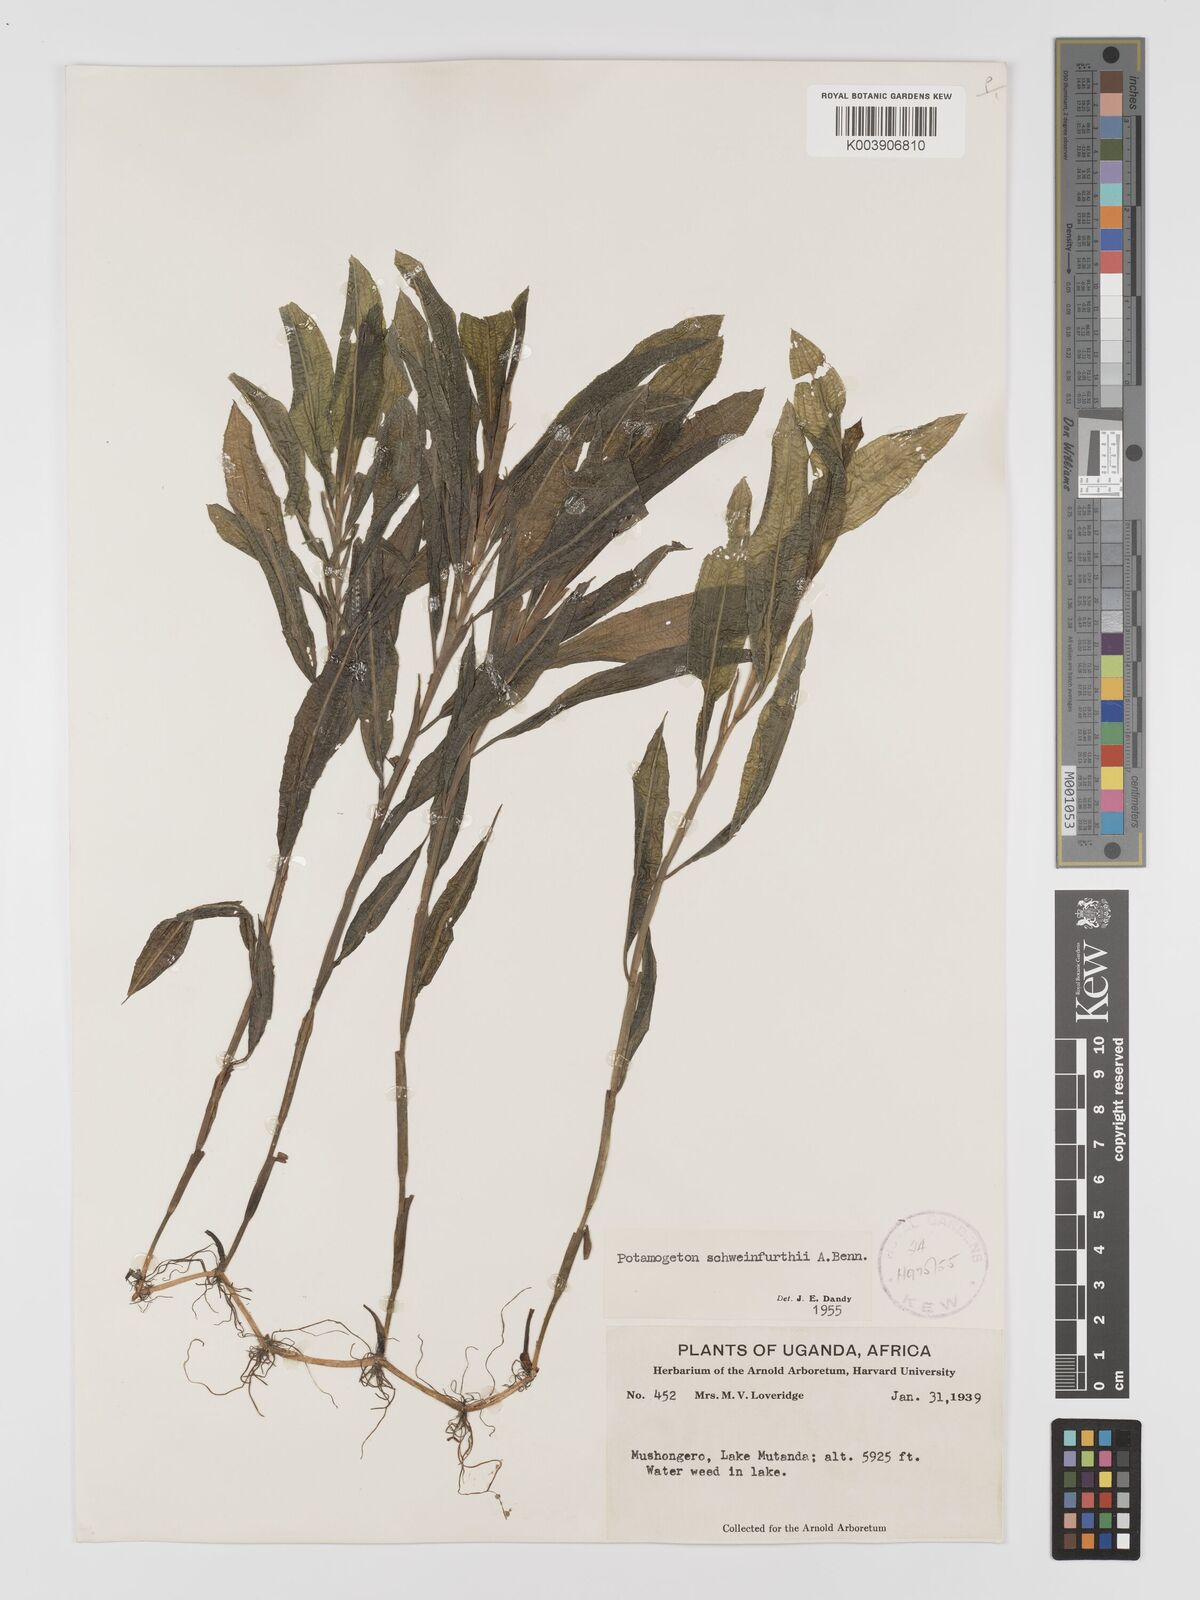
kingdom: Plantae
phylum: Tracheophyta
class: Liliopsida
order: Alismatales
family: Potamogetonaceae
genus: Potamogeton
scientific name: Potamogeton schweinfurthii
